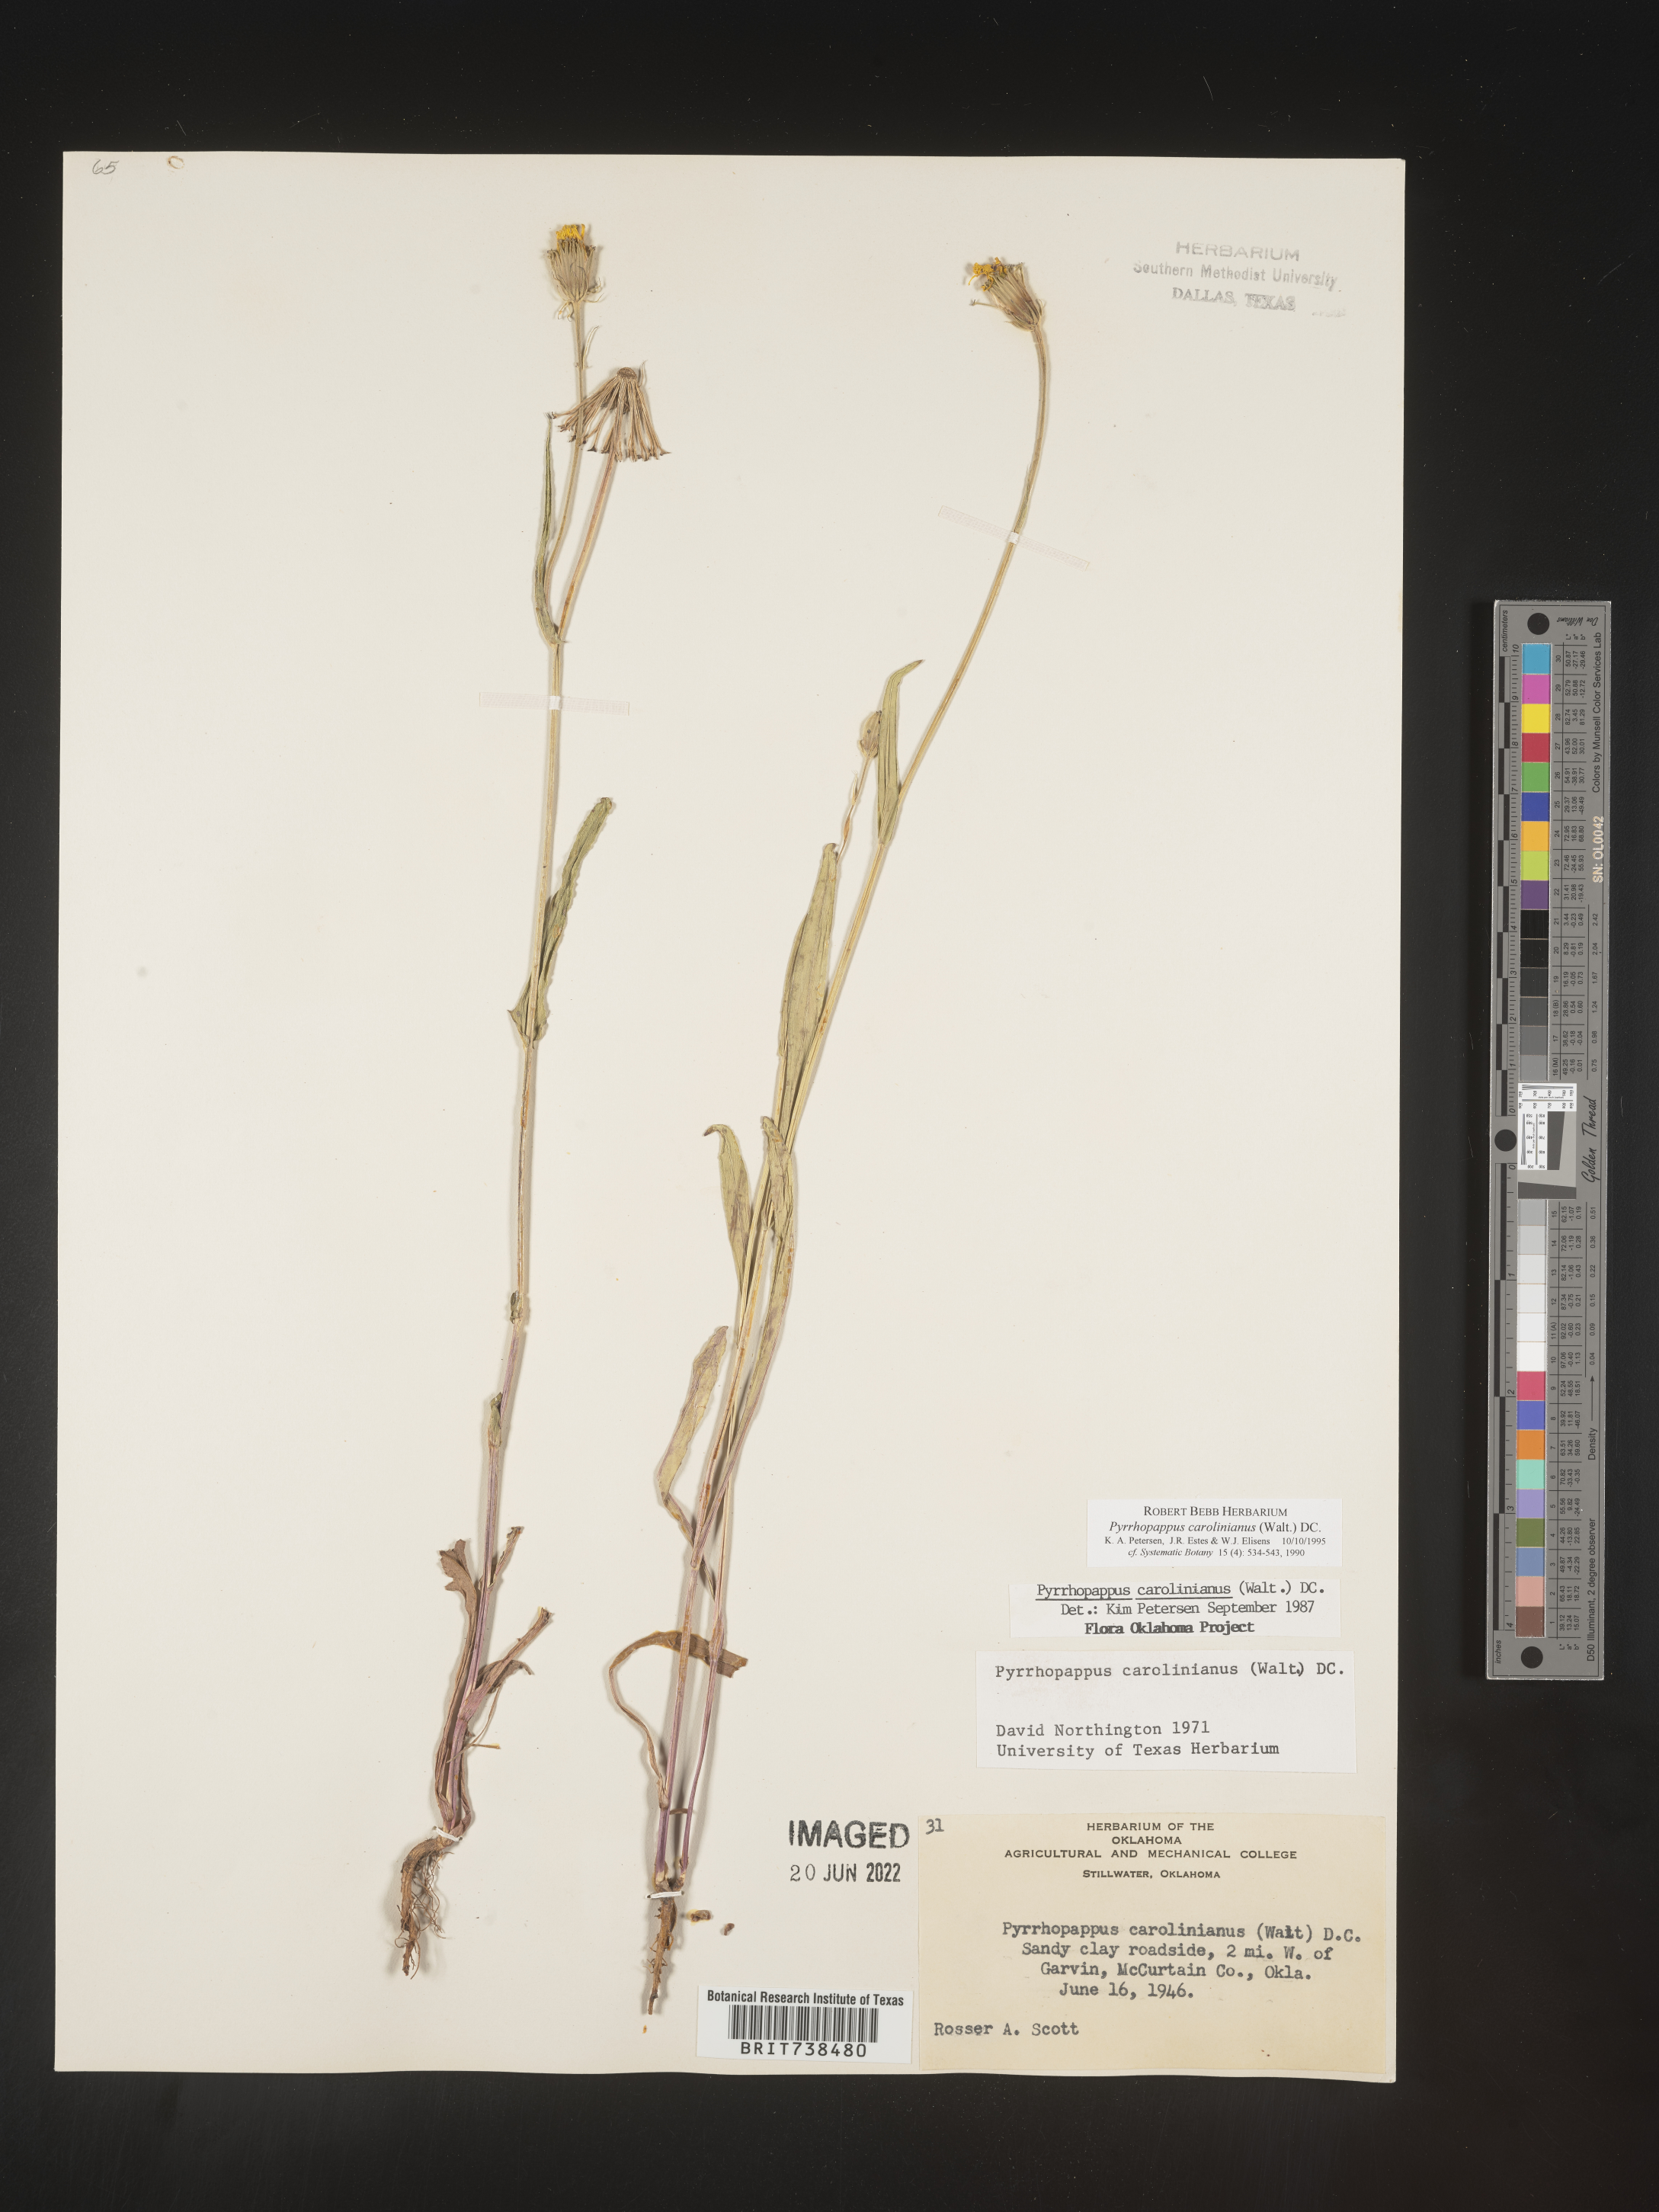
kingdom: Plantae
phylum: Tracheophyta
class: Magnoliopsida
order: Asterales
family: Asteraceae
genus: Pyrrhopappus
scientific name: Pyrrhopappus carolinianus
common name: Carolina desert-chicory
